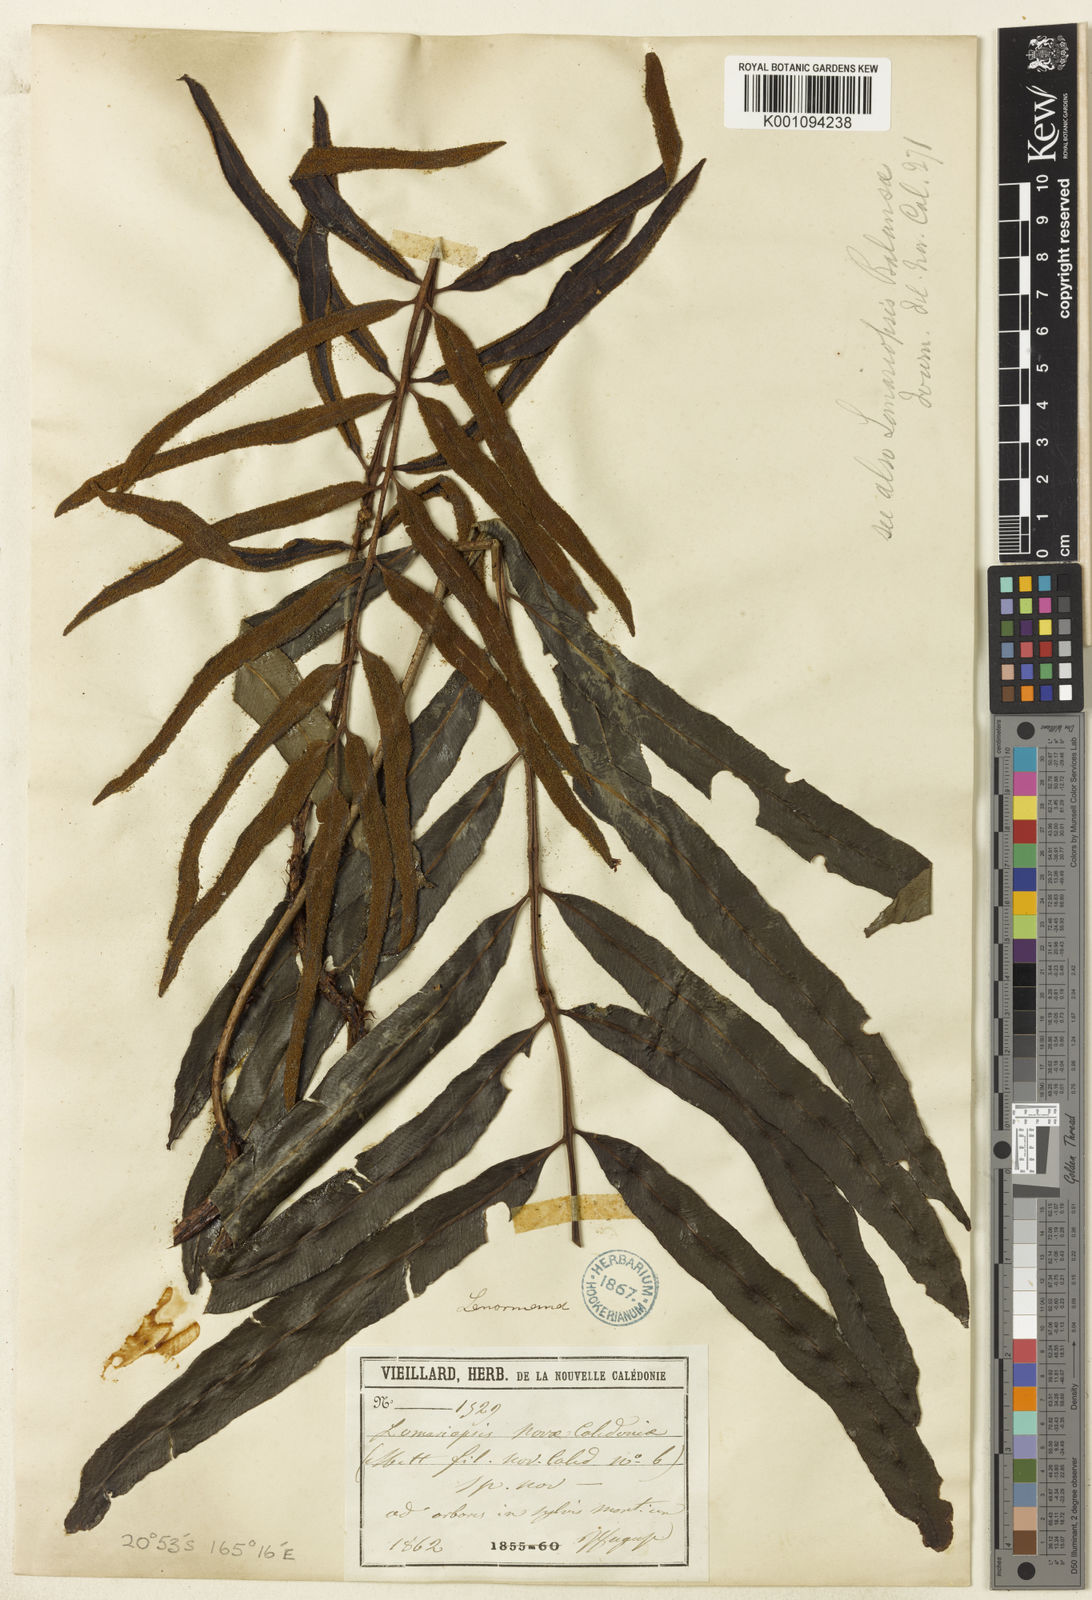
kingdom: Plantae
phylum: Tracheophyta
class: Polypodiopsida
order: Polypodiales
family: Lomariopsidaceae
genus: Lomariopsis
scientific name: Lomariopsis novae-caledoniae
